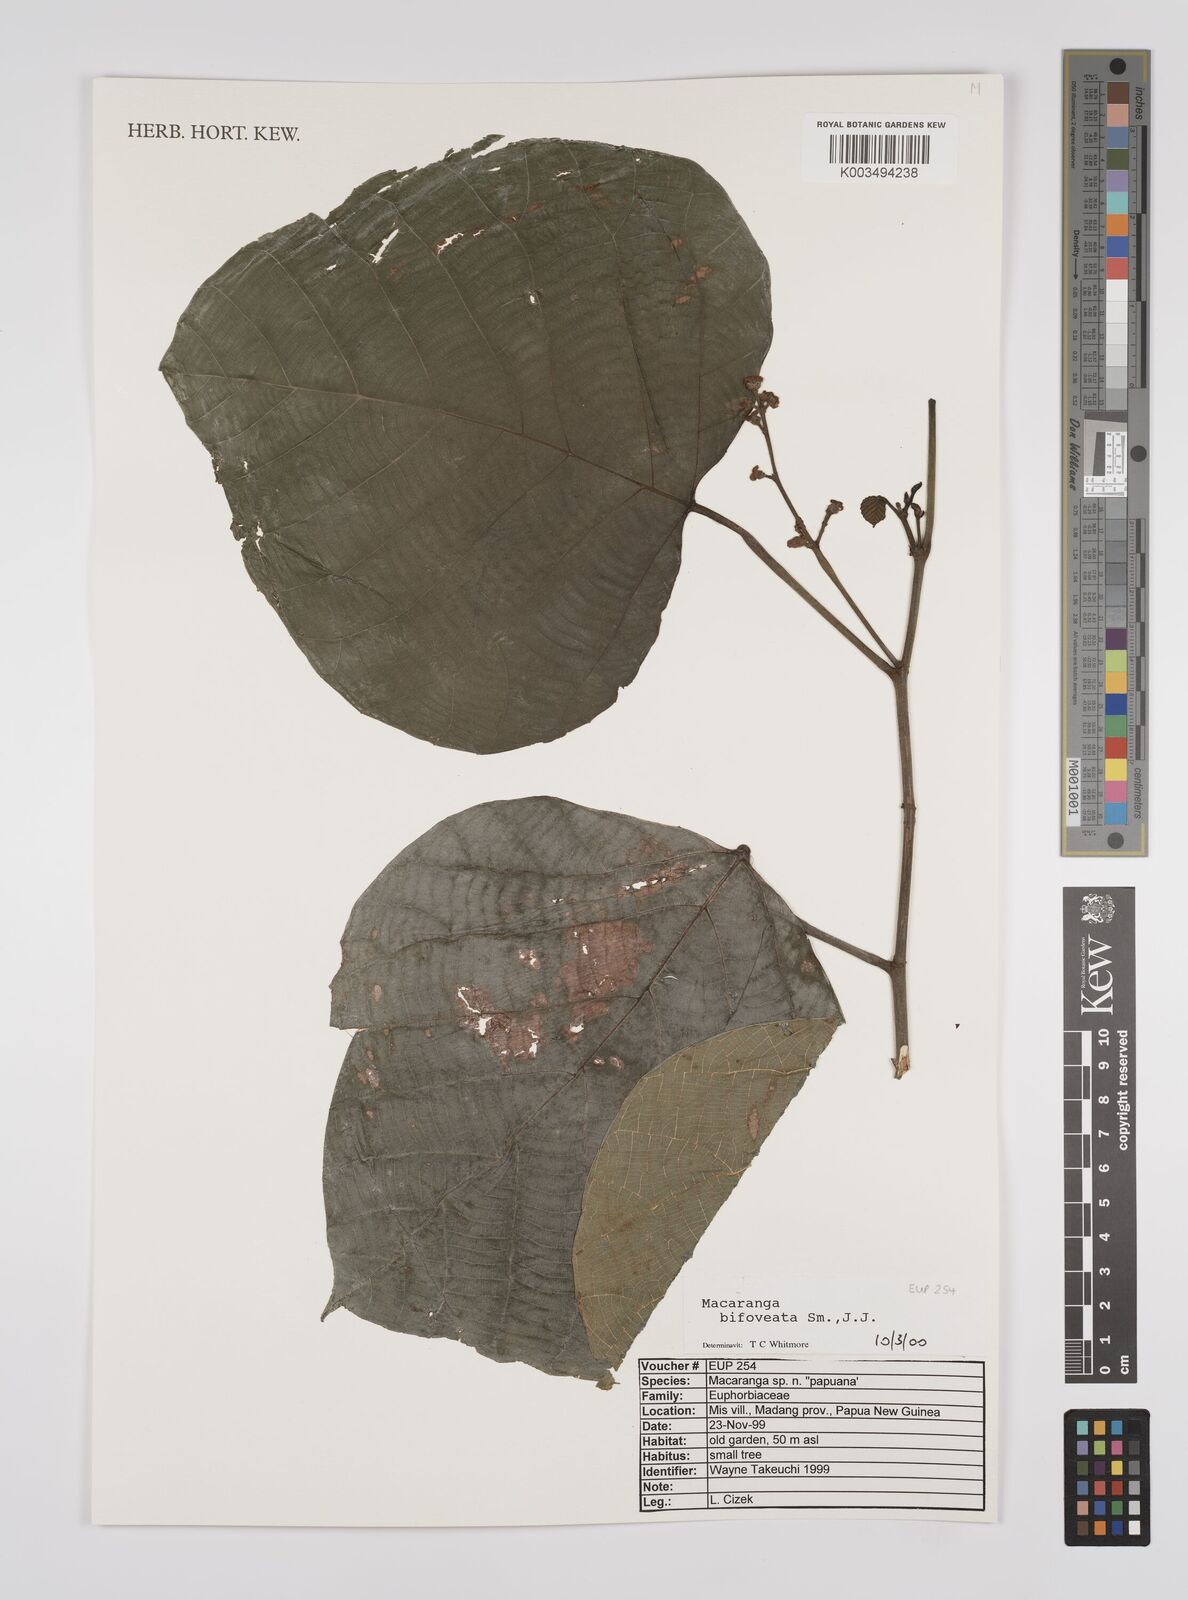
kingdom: Plantae
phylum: Tracheophyta
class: Magnoliopsida
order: Malpighiales
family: Euphorbiaceae
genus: Macaranga
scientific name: Macaranga bifoveata
